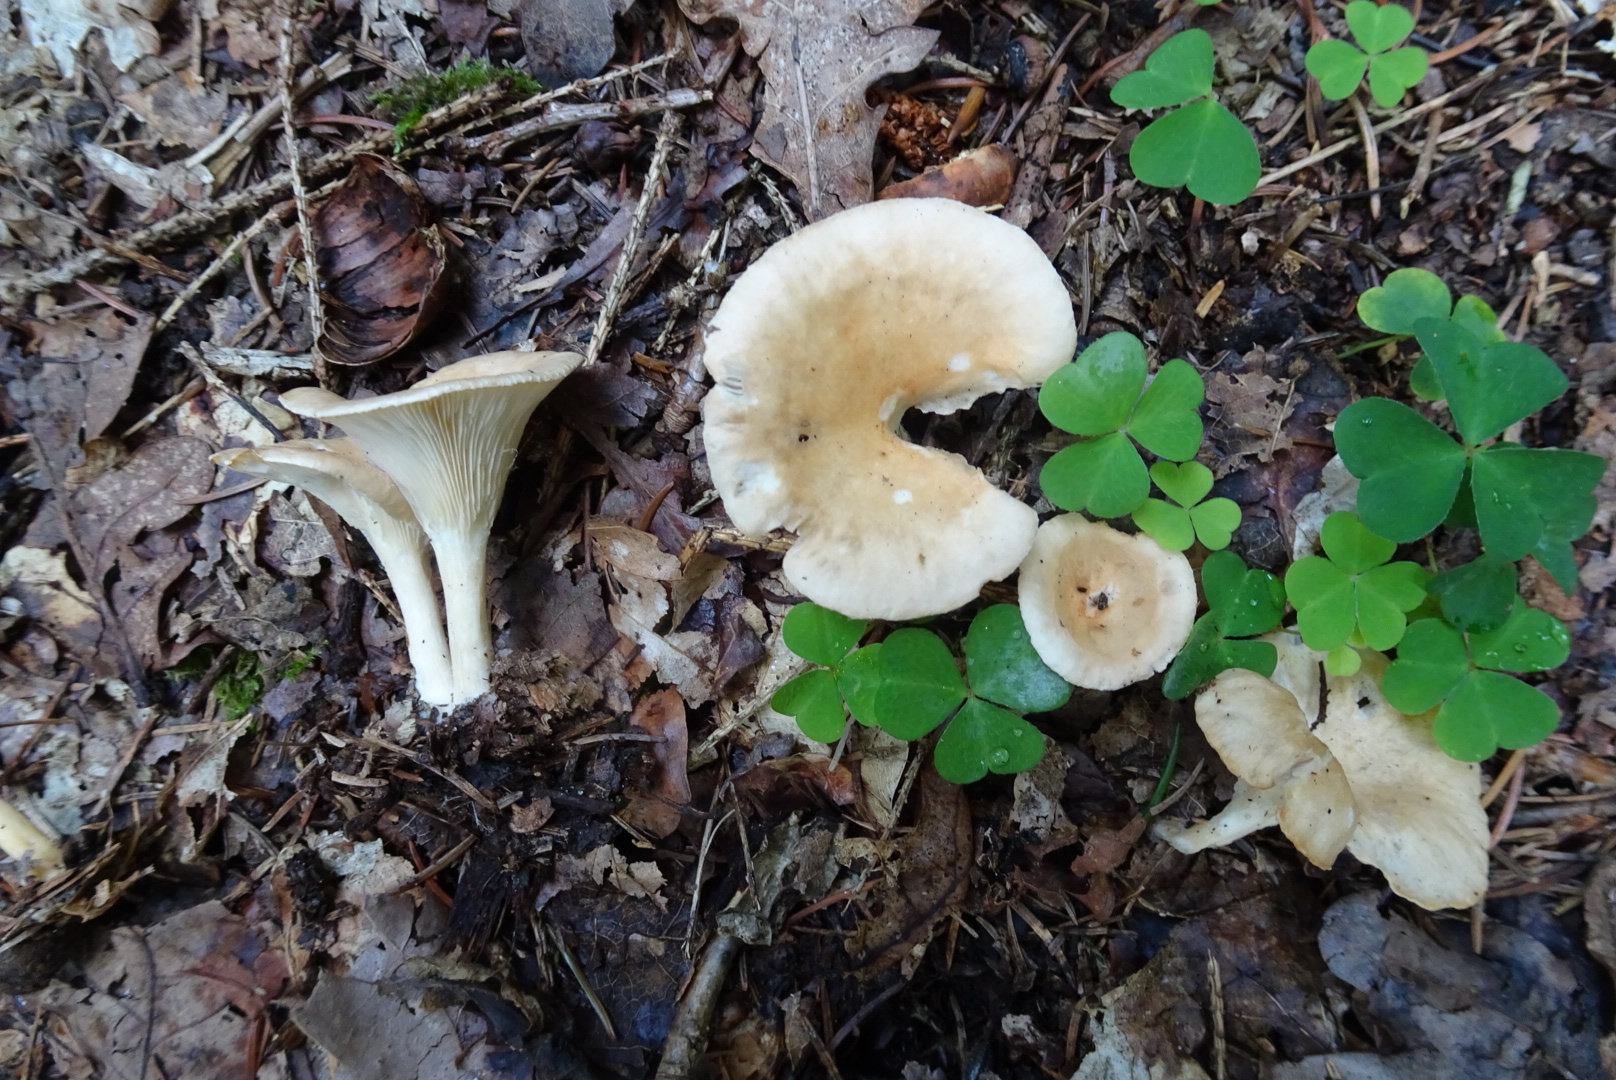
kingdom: Fungi
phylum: Basidiomycota
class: Agaricomycetes
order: Agaricales
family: Tricholomataceae
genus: Infundibulicybe
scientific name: Infundibulicybe gibba
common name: almindelig tragthat
